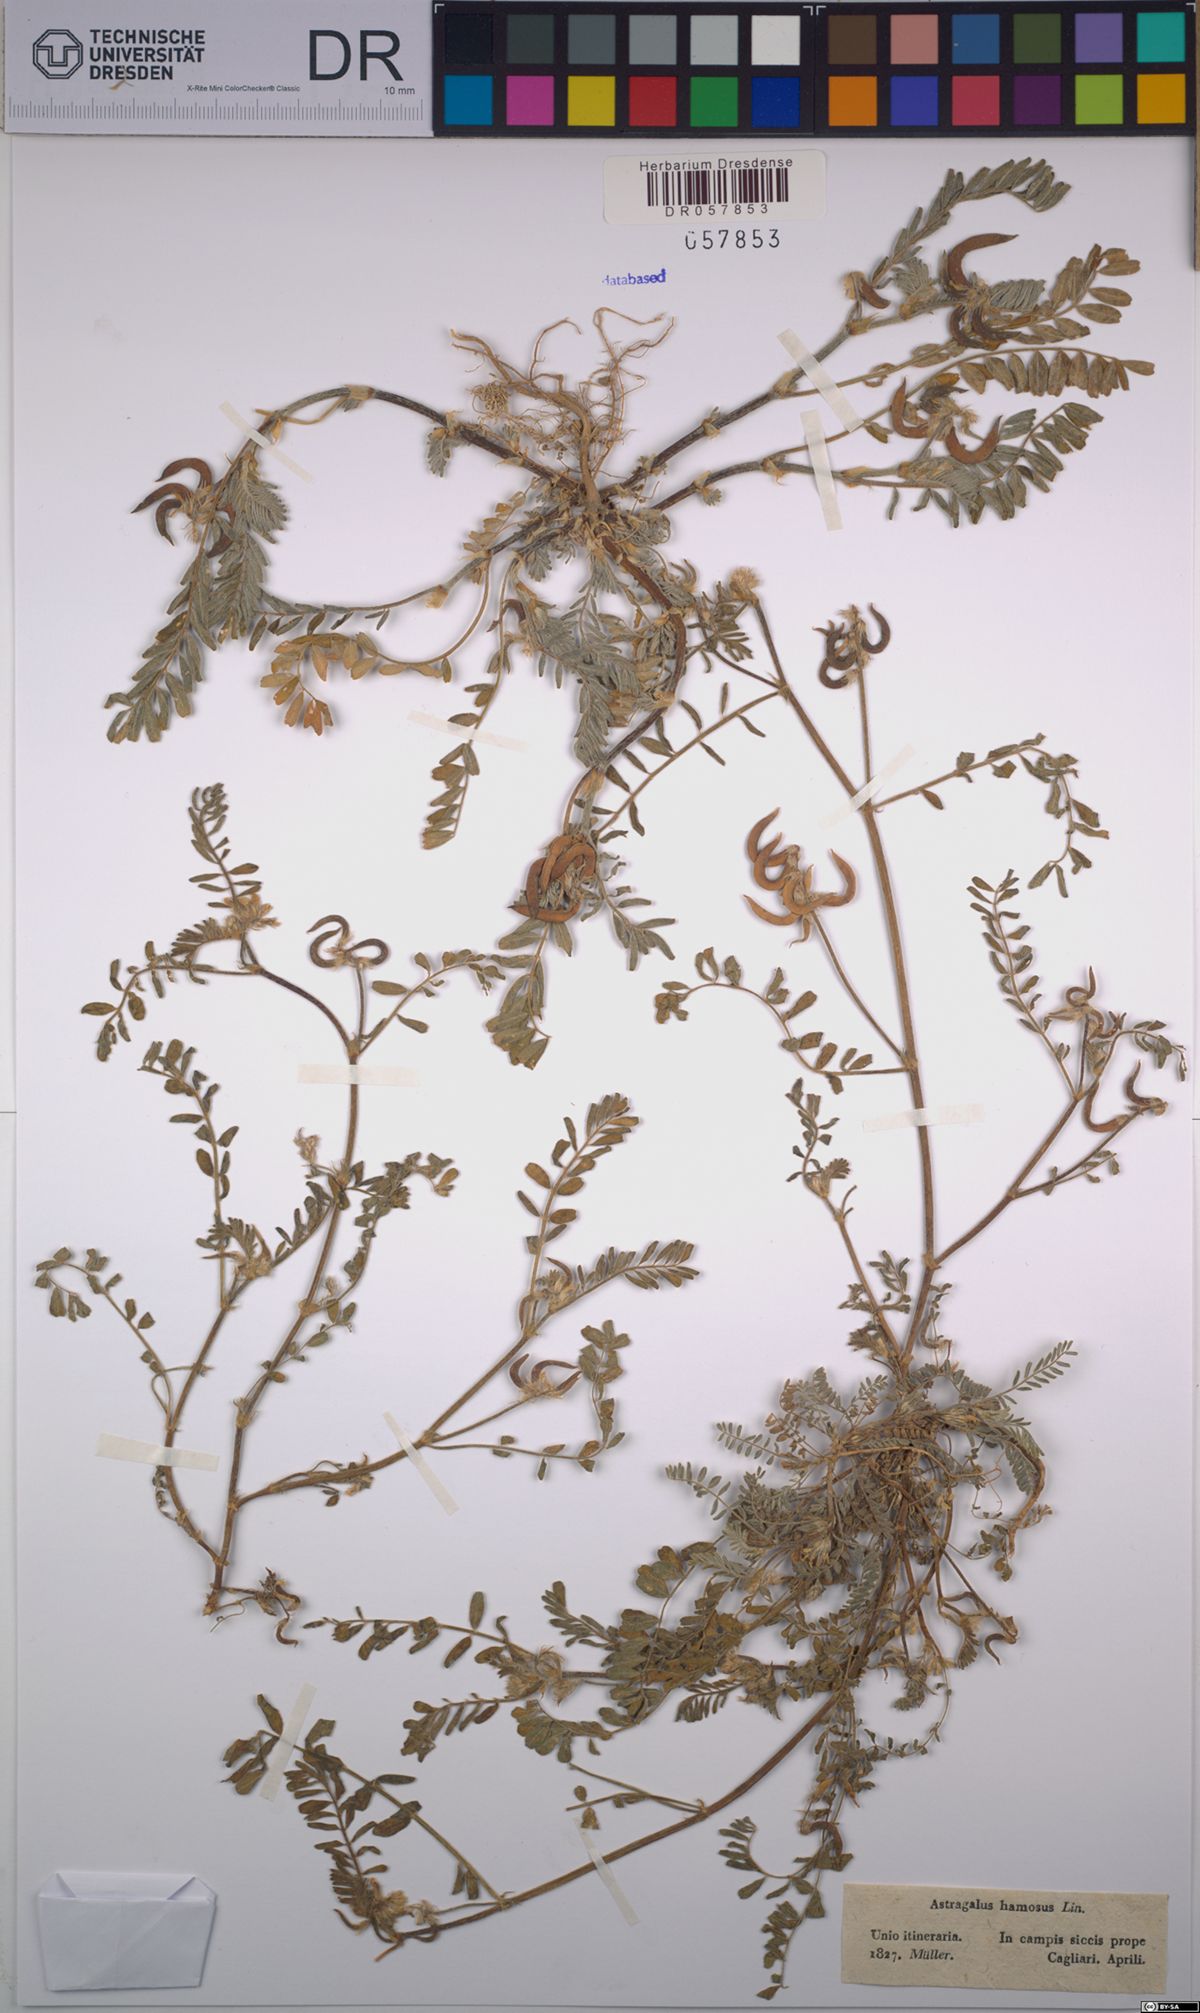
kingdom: Plantae
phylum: Tracheophyta
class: Magnoliopsida
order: Fabales
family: Fabaceae
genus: Astragalus
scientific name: Astragalus hamosus
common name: European milkvetch
